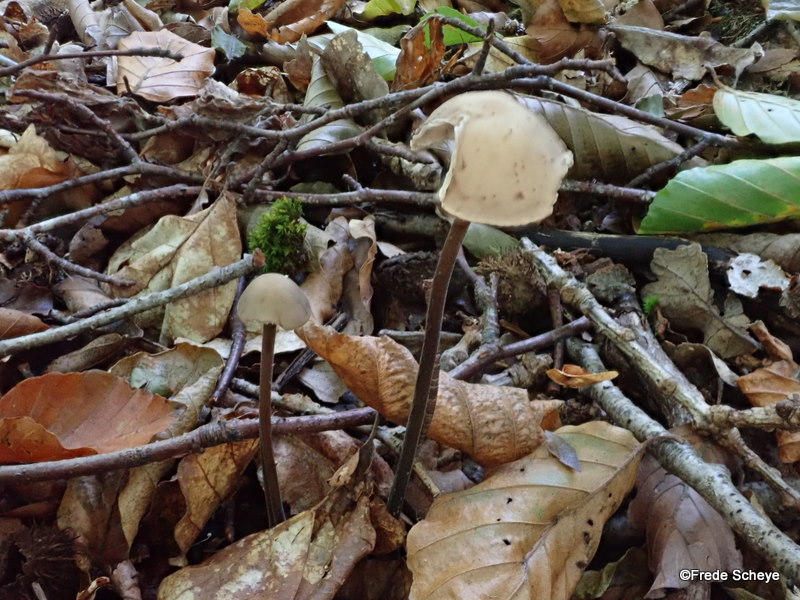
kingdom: Fungi
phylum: Basidiomycota
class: Agaricomycetes
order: Agaricales
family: Omphalotaceae
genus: Mycetinis
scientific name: Mycetinis alliaceus
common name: stor løghat
